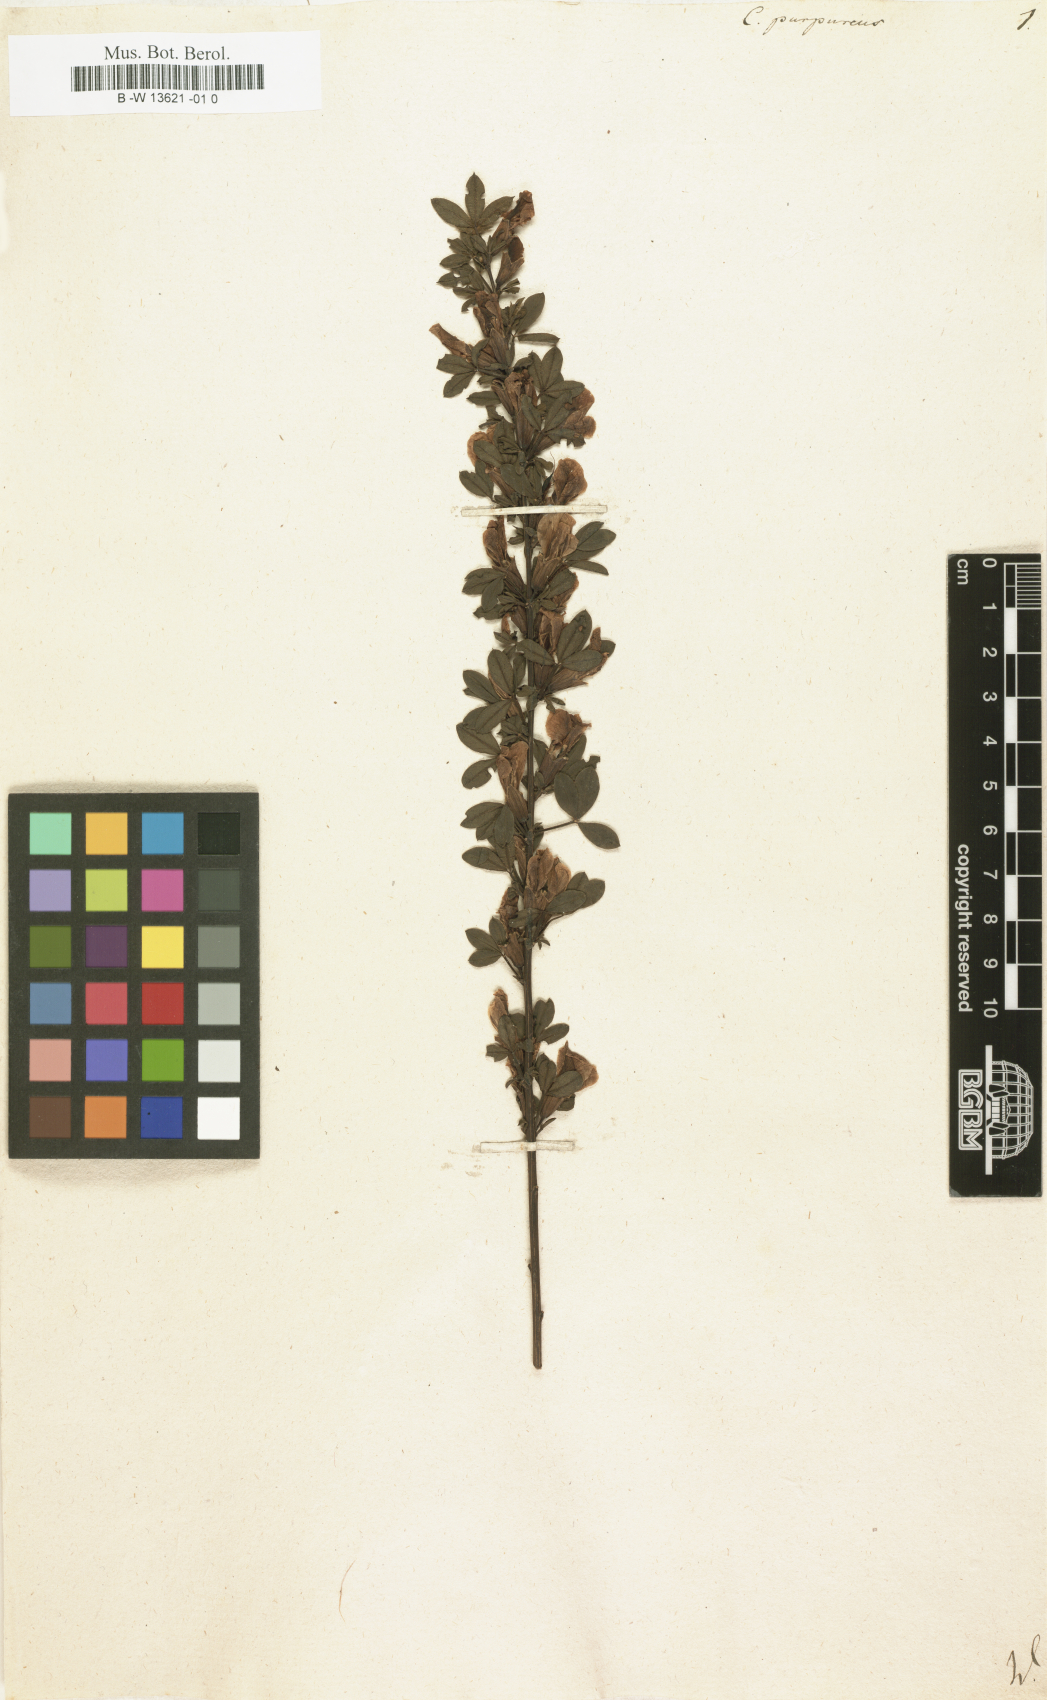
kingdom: Plantae
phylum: Tracheophyta
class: Magnoliopsida
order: Fabales
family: Fabaceae
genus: Chamaecytisus
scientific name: Chamaecytisus purpureus
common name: Purple broom
